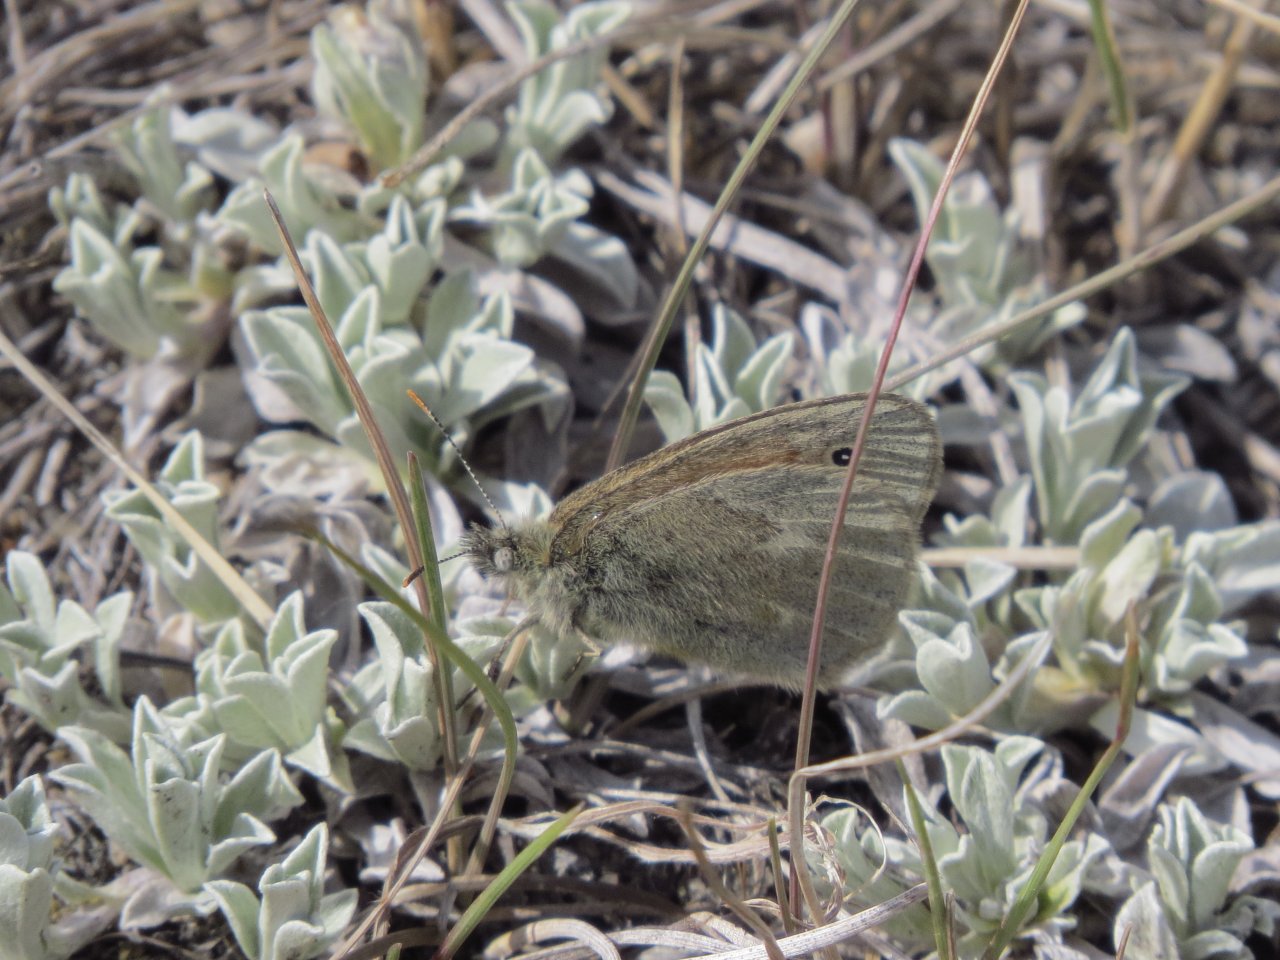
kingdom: Animalia
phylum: Arthropoda
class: Insecta
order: Lepidoptera
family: Nymphalidae
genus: Coenonympha
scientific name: Coenonympha tullia
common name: Large Heath
